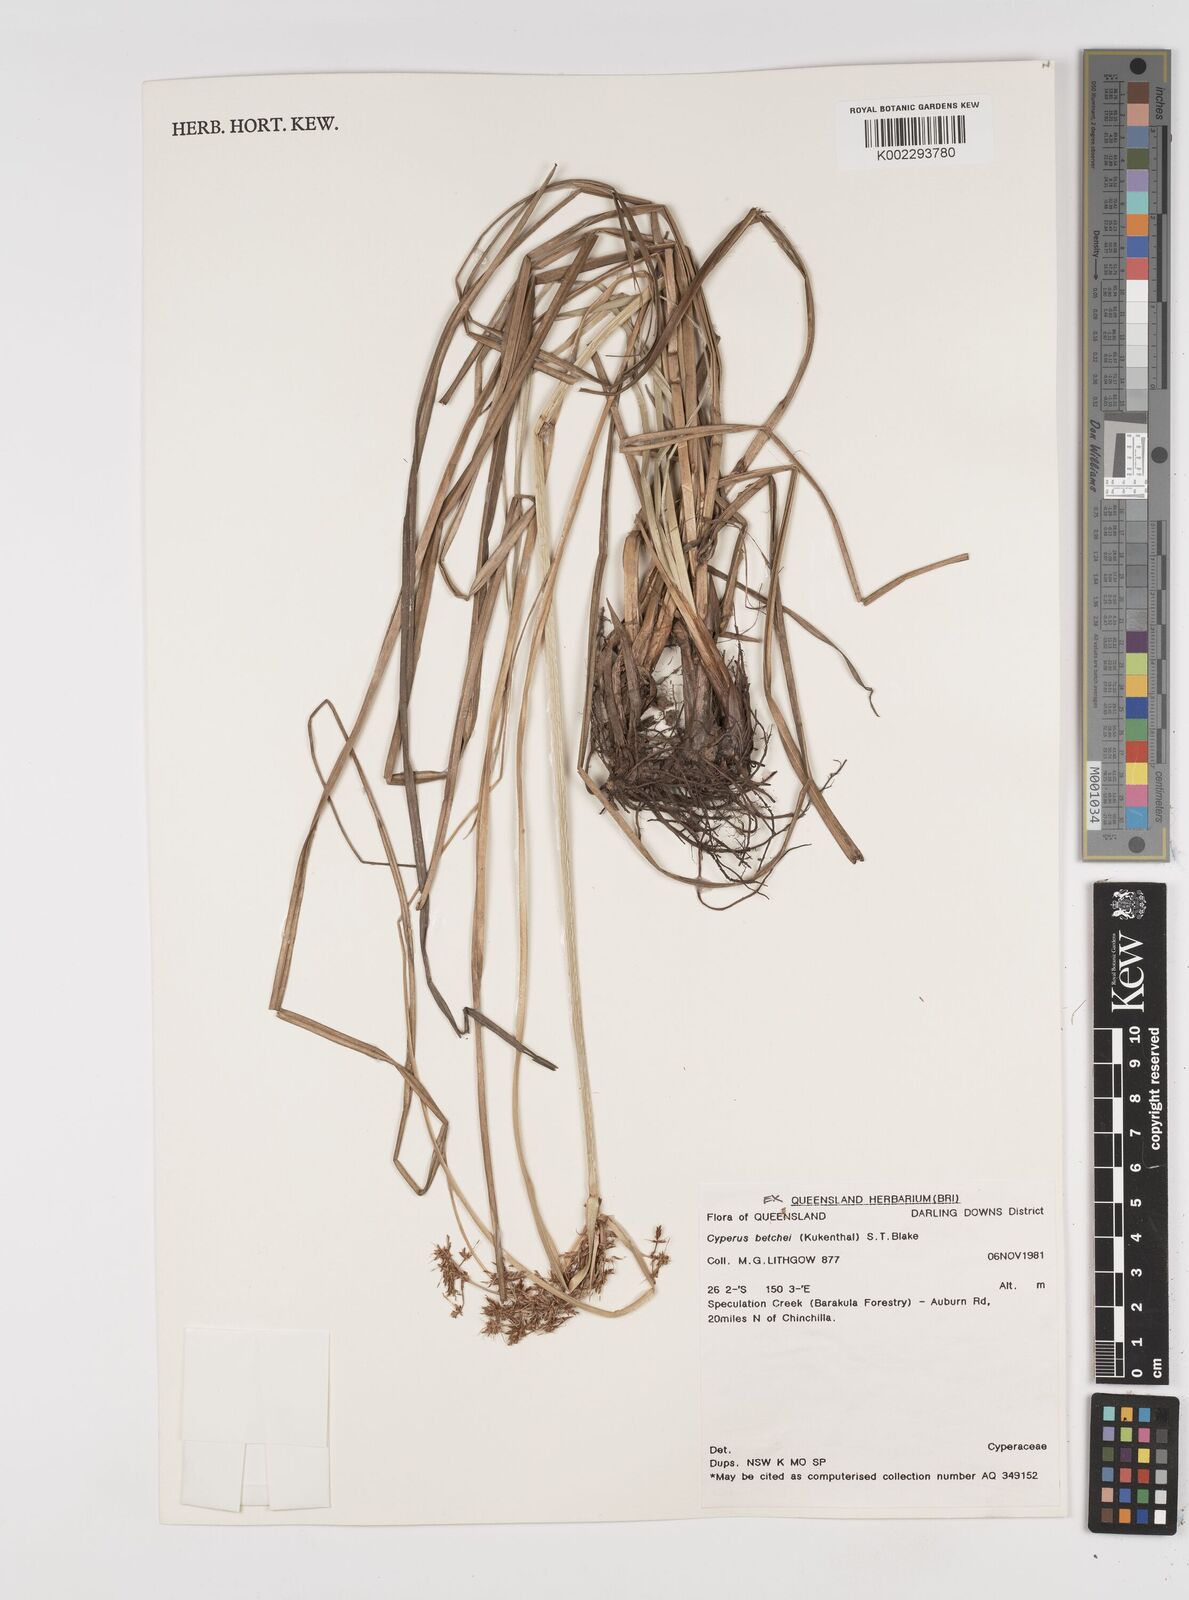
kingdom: Plantae
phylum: Tracheophyta
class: Liliopsida
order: Poales
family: Cyperaceae
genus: Cyperus
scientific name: Cyperus betchei
